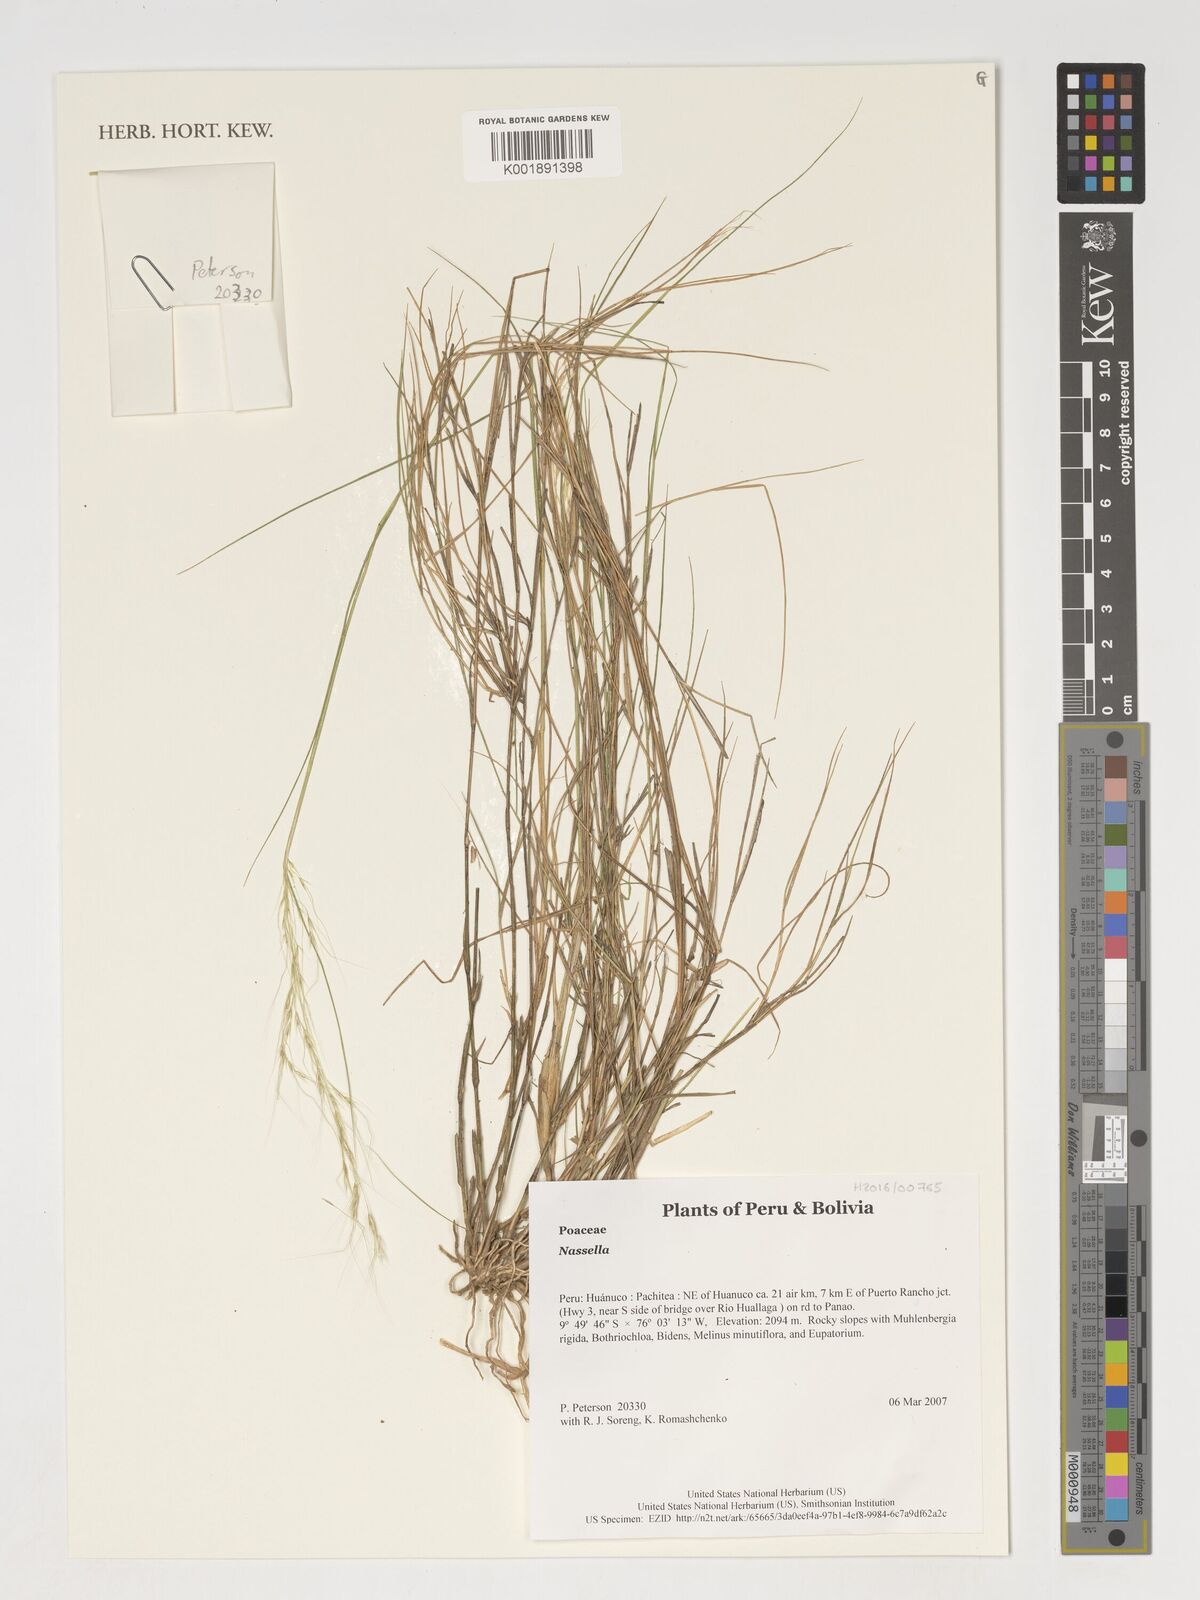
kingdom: Plantae
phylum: Tracheophyta
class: Liliopsida
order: Poales
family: Poaceae
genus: Nassella
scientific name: Nassella
